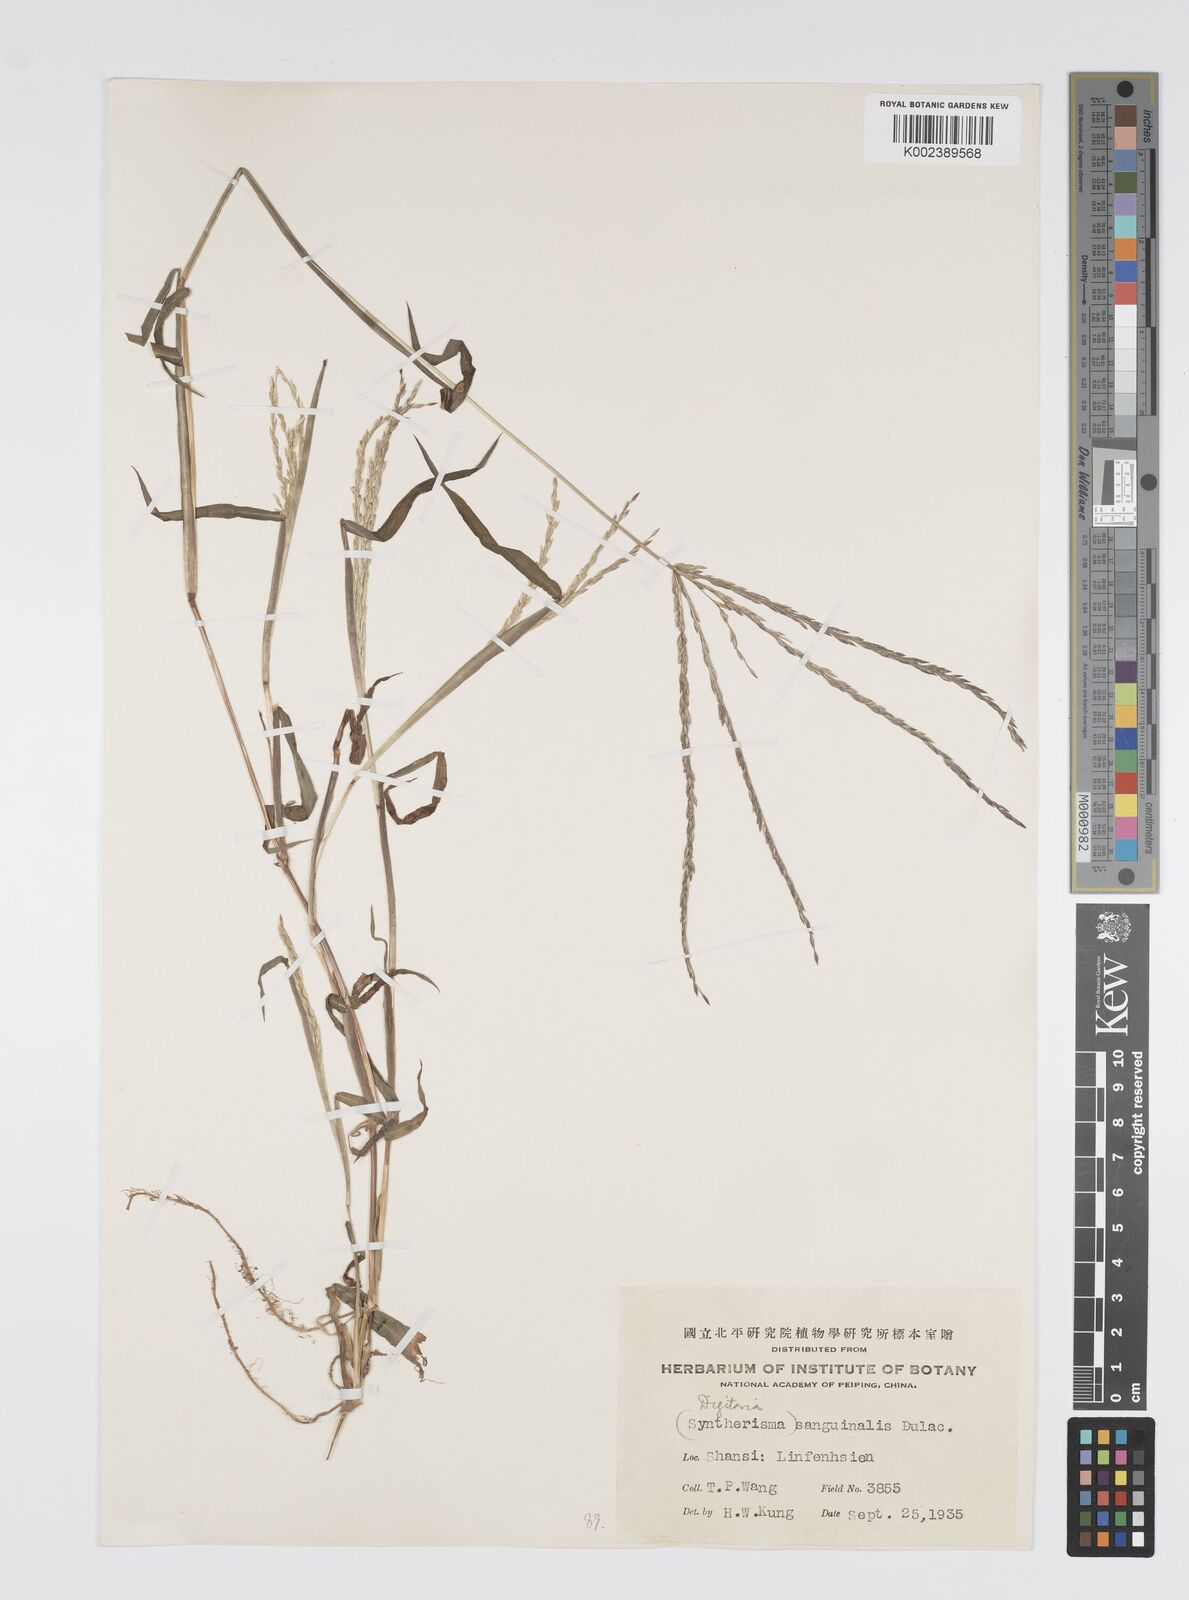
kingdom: Plantae
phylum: Tracheophyta
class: Liliopsida
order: Poales
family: Poaceae
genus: Digitaria
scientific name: Digitaria ciliaris
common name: Tropical finger-grass
